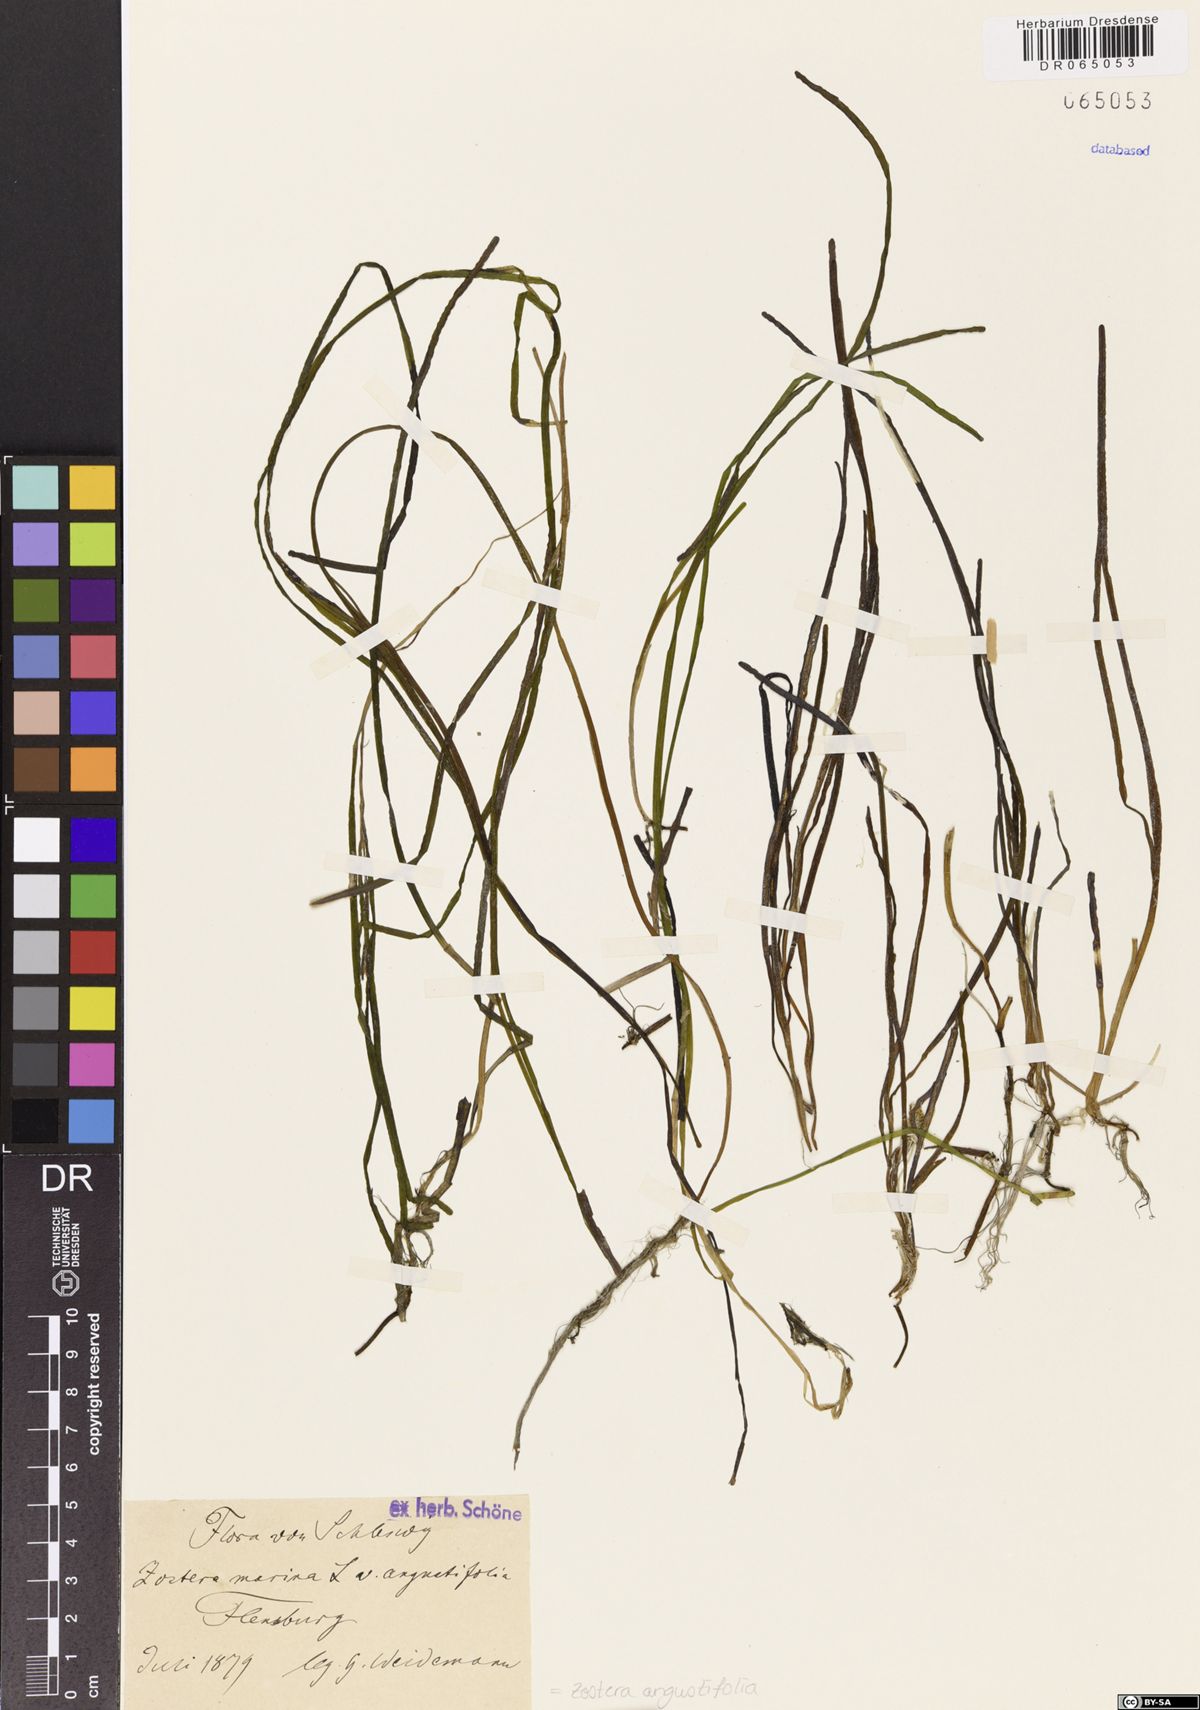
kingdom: Plantae
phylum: Tracheophyta
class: Liliopsida
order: Alismatales
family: Zosteraceae
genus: Zostera
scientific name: Zostera angustifolia
